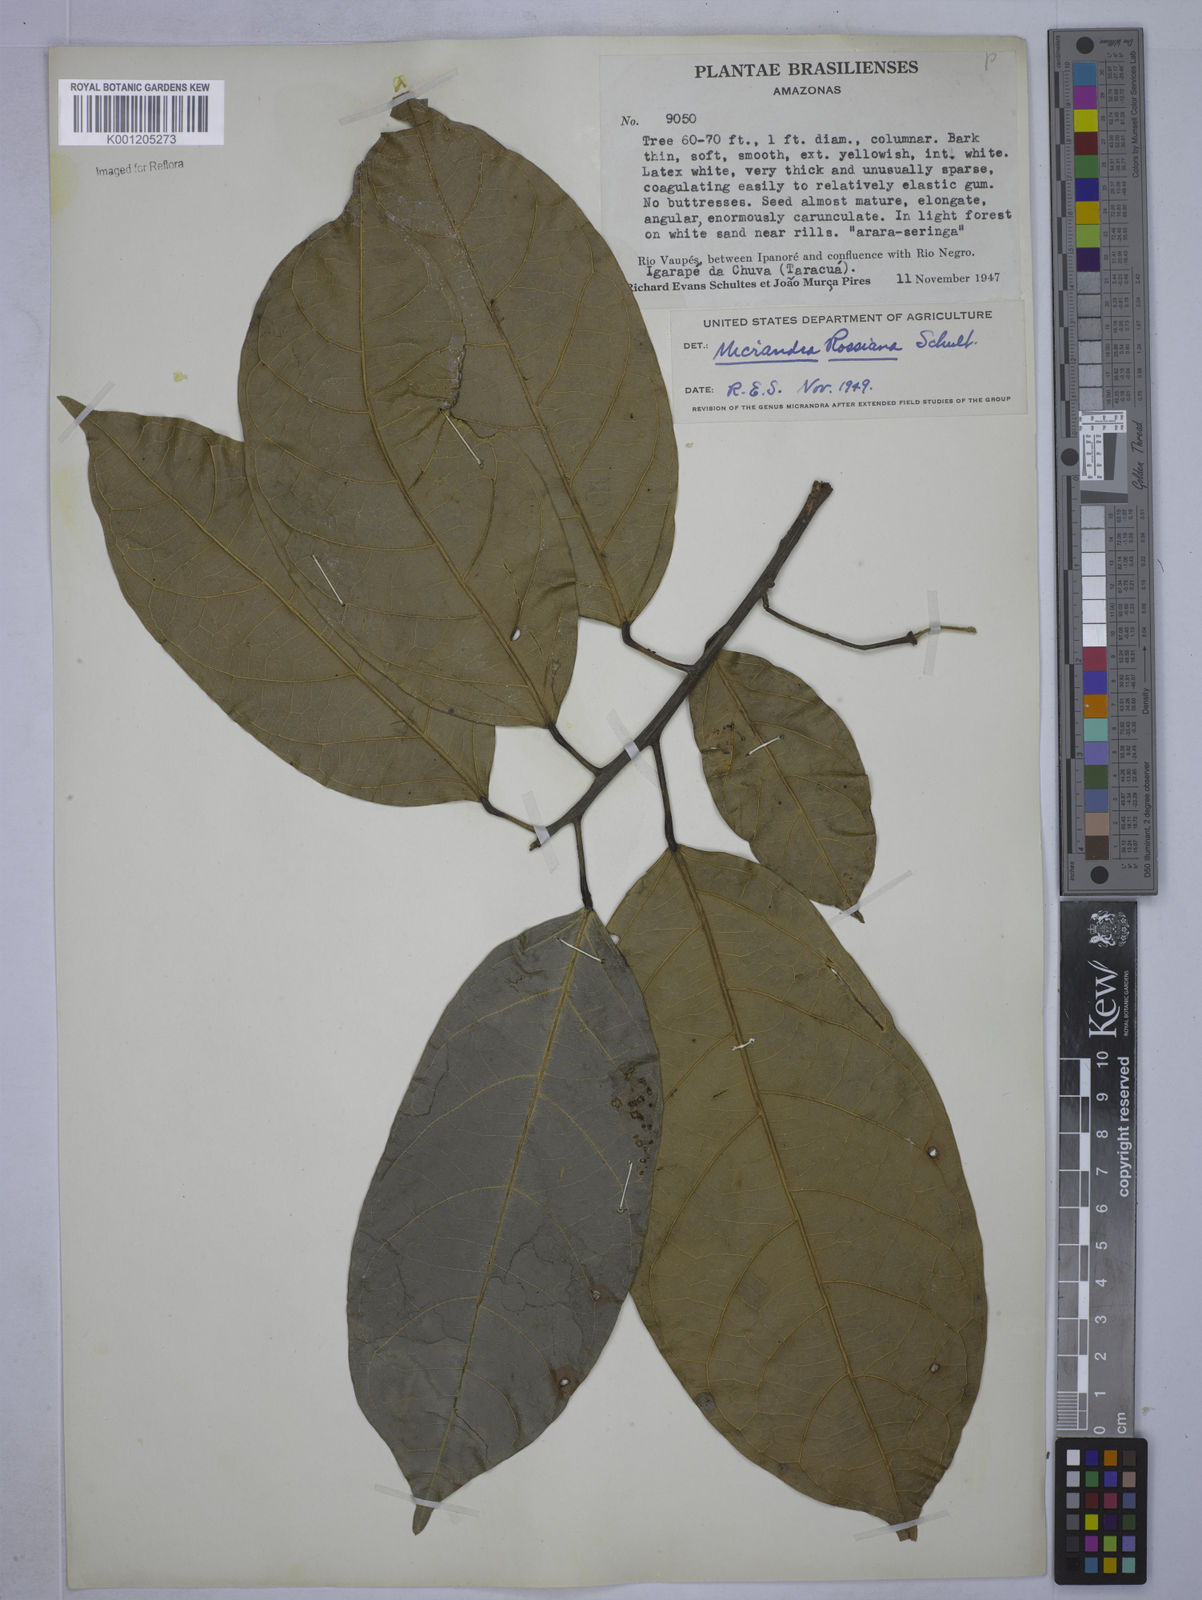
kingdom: Plantae
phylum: Tracheophyta
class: Magnoliopsida
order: Malpighiales
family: Euphorbiaceae
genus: Micrandra
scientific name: Micrandra rossiana
